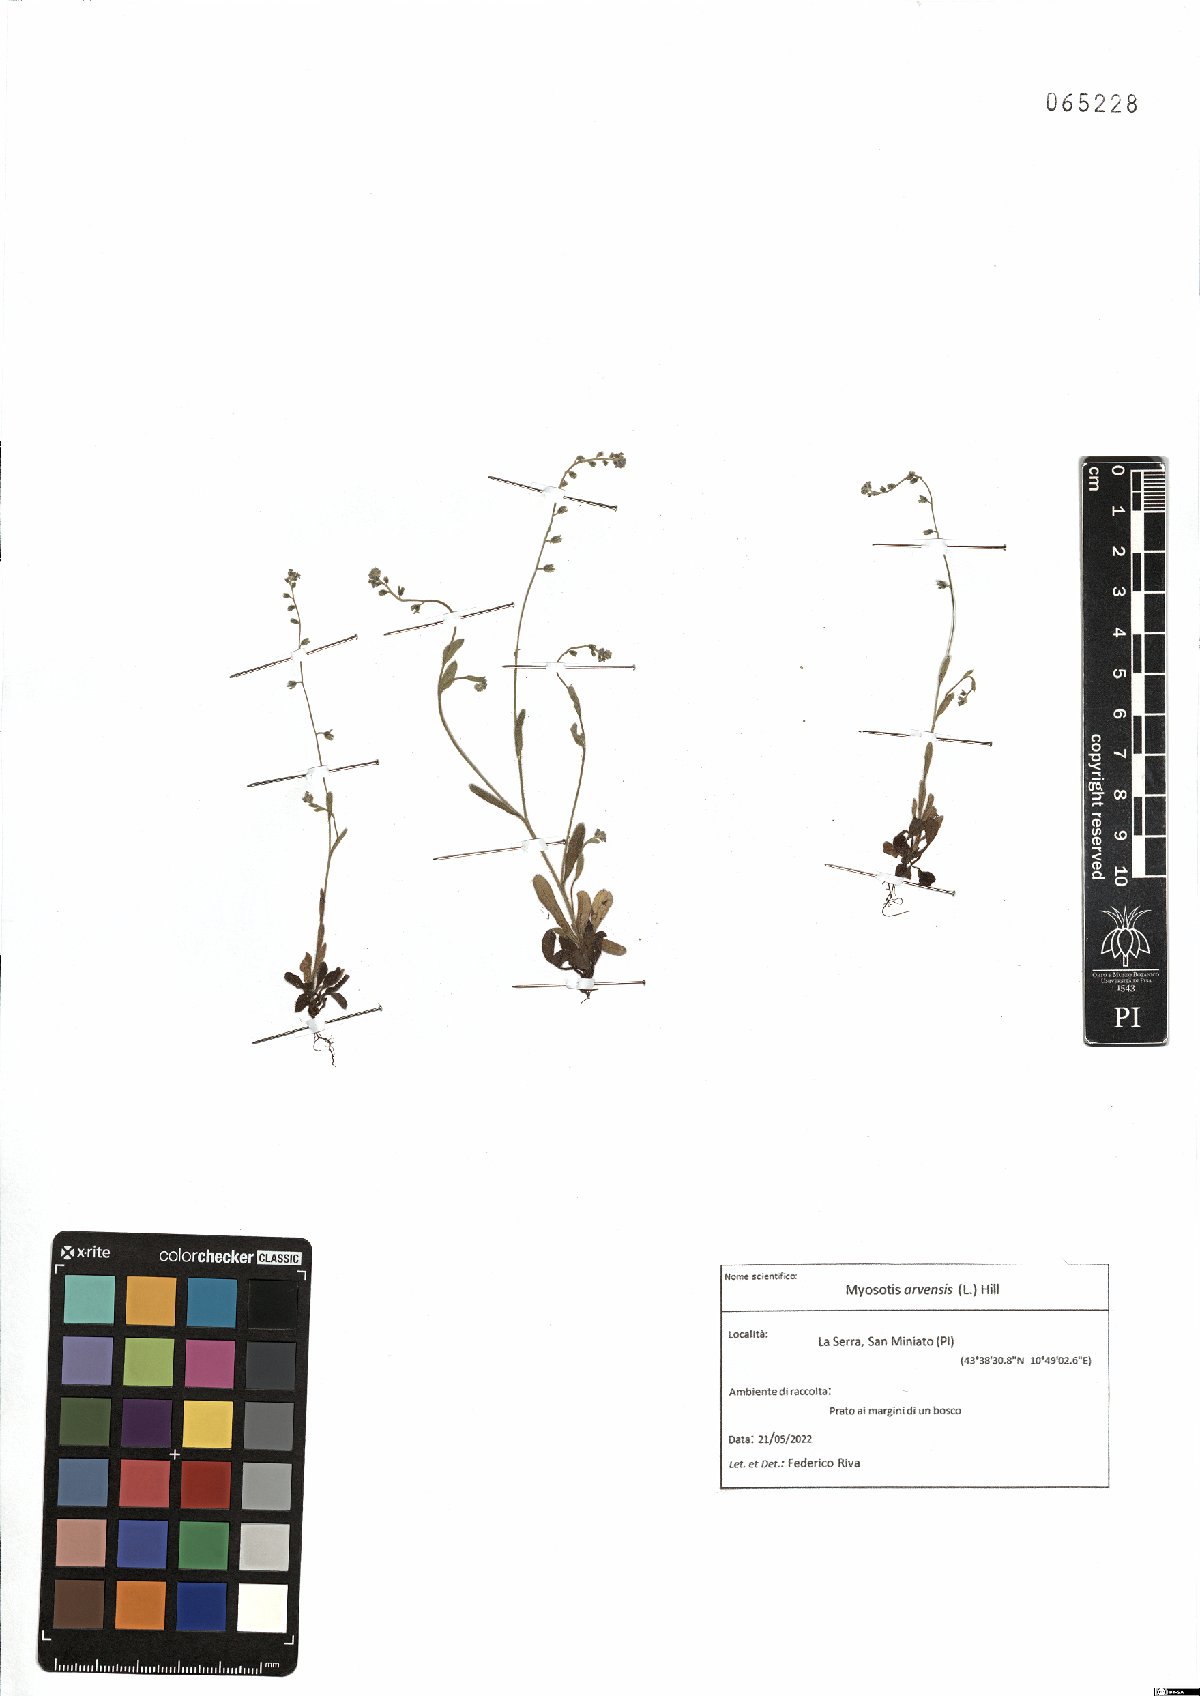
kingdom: Plantae
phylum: Tracheophyta
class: Magnoliopsida
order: Boraginales
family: Boraginaceae
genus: Myosotis
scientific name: Myosotis arvensis
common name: Field forget-me-not
